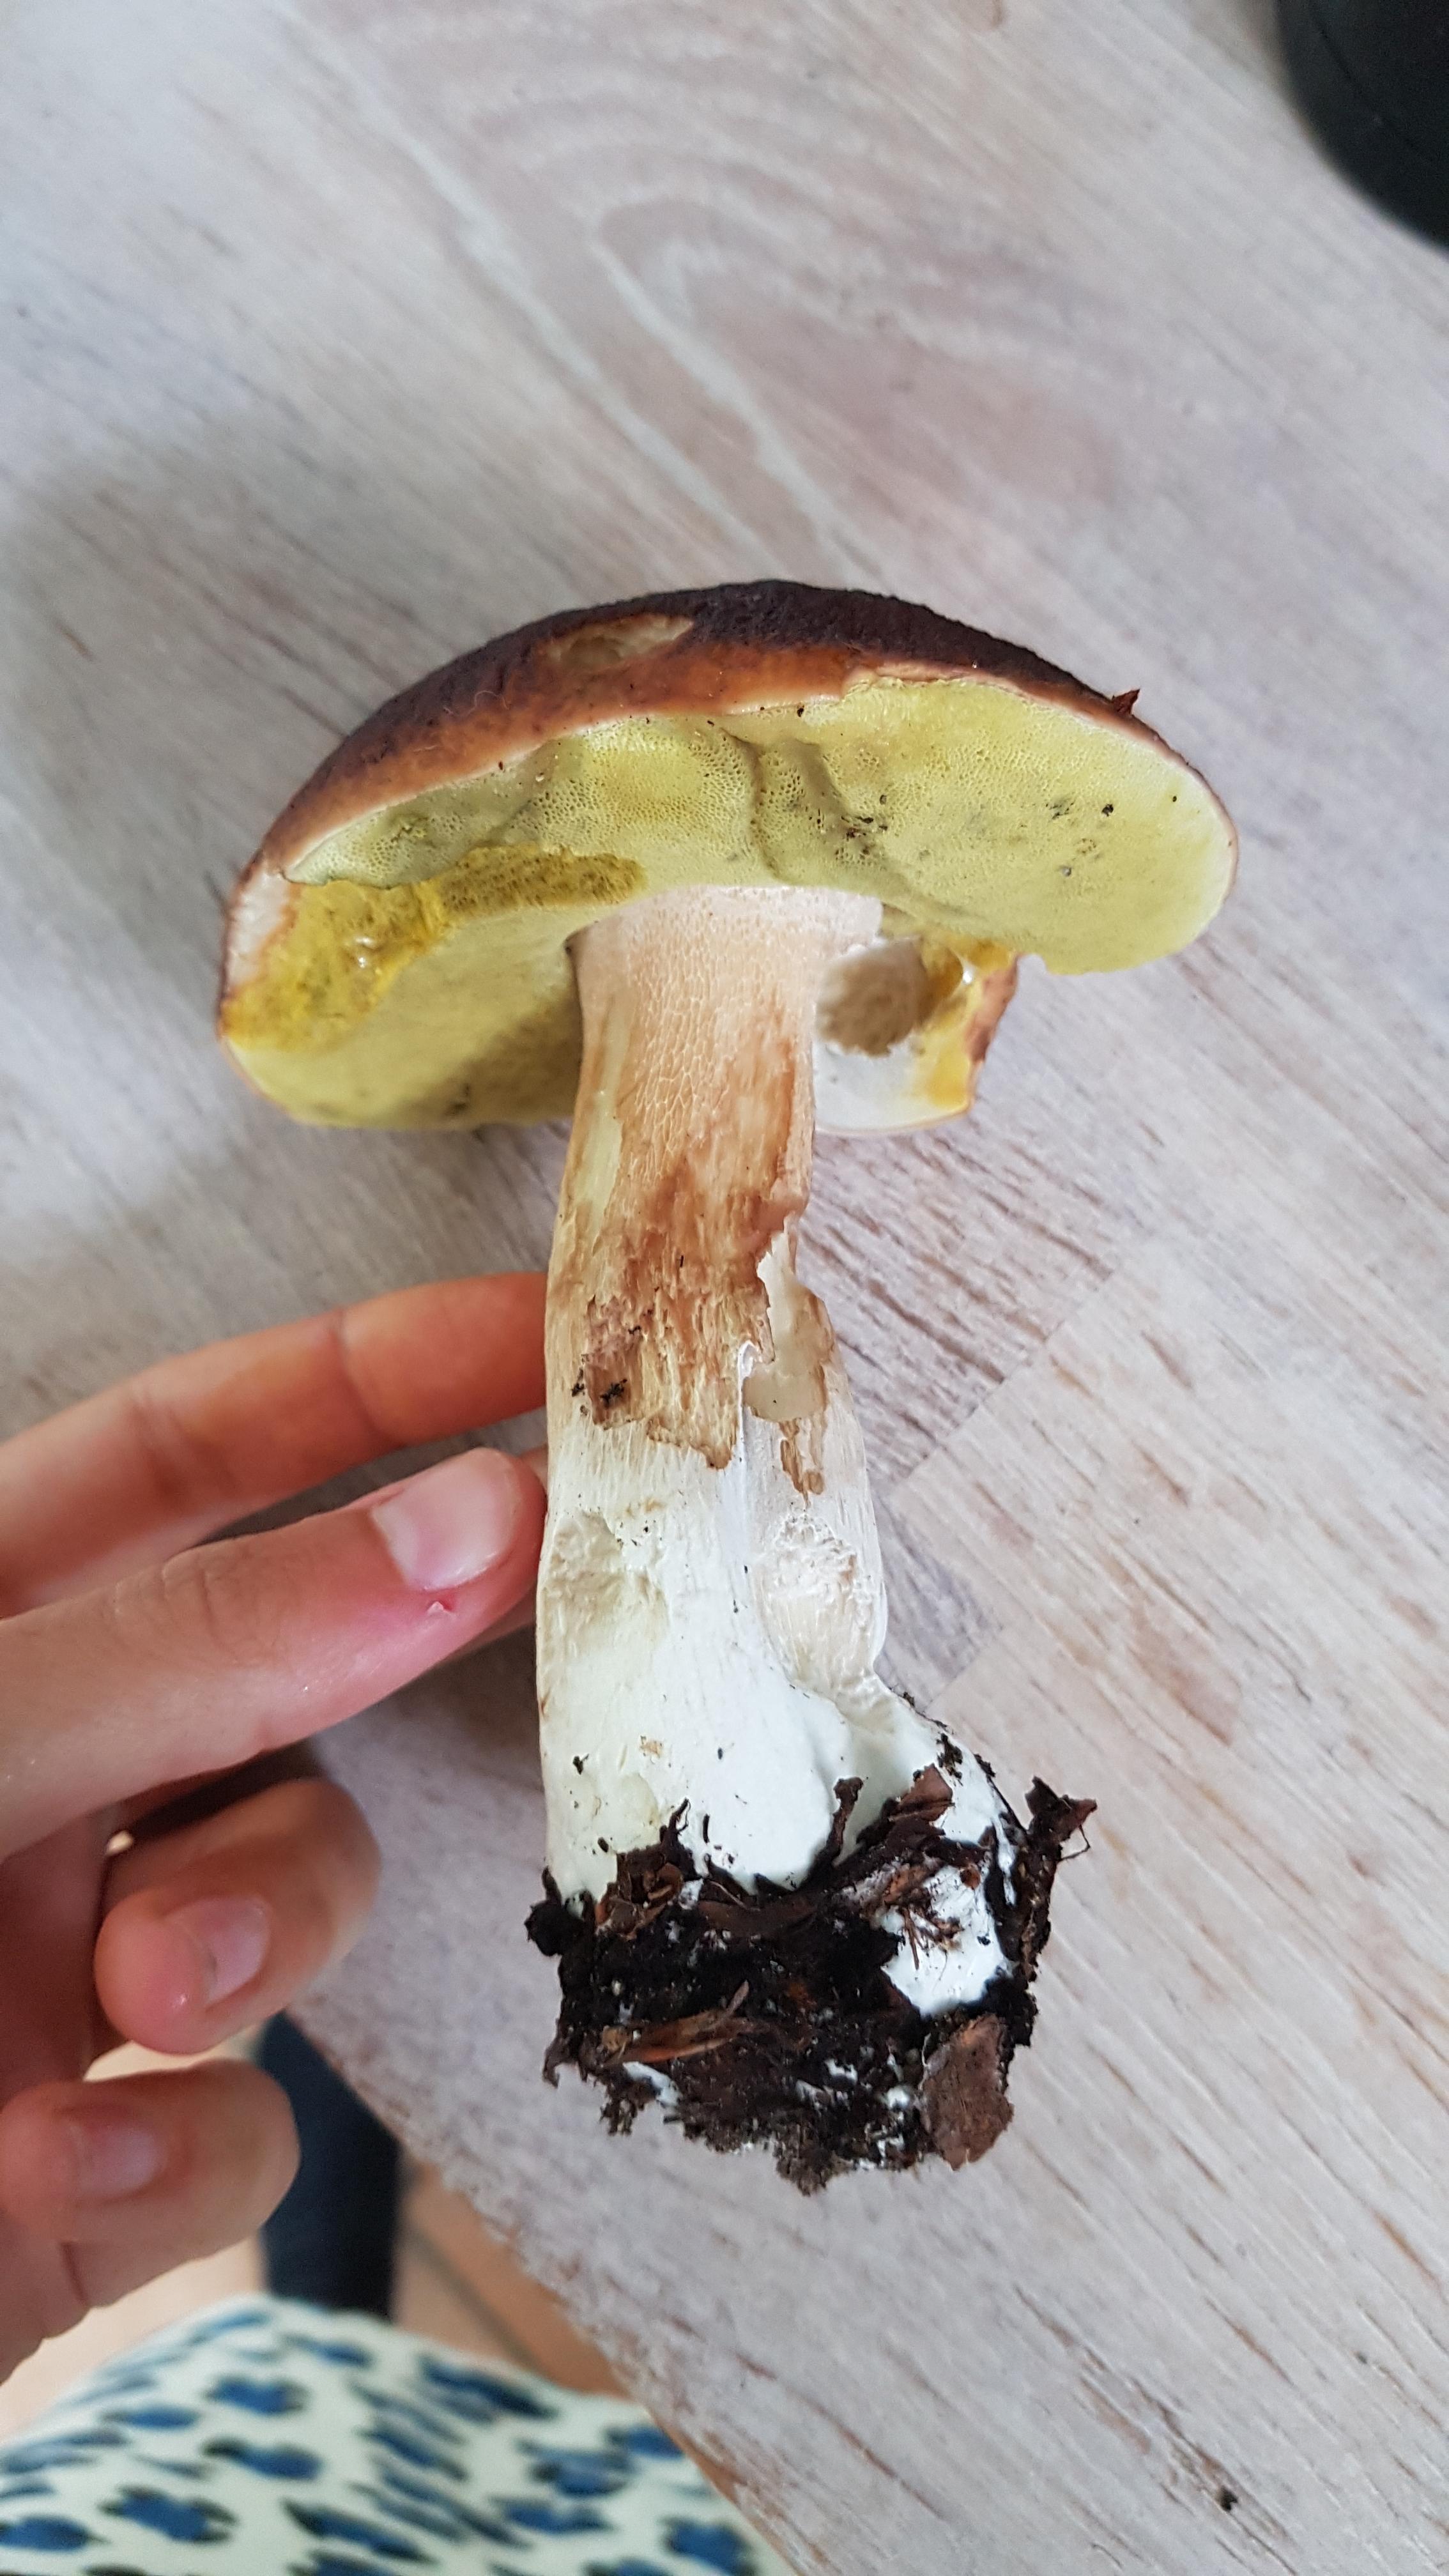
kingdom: Fungi
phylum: Basidiomycota
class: Agaricomycetes
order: Boletales
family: Boletaceae
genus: Boletus
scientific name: Boletus edulis
